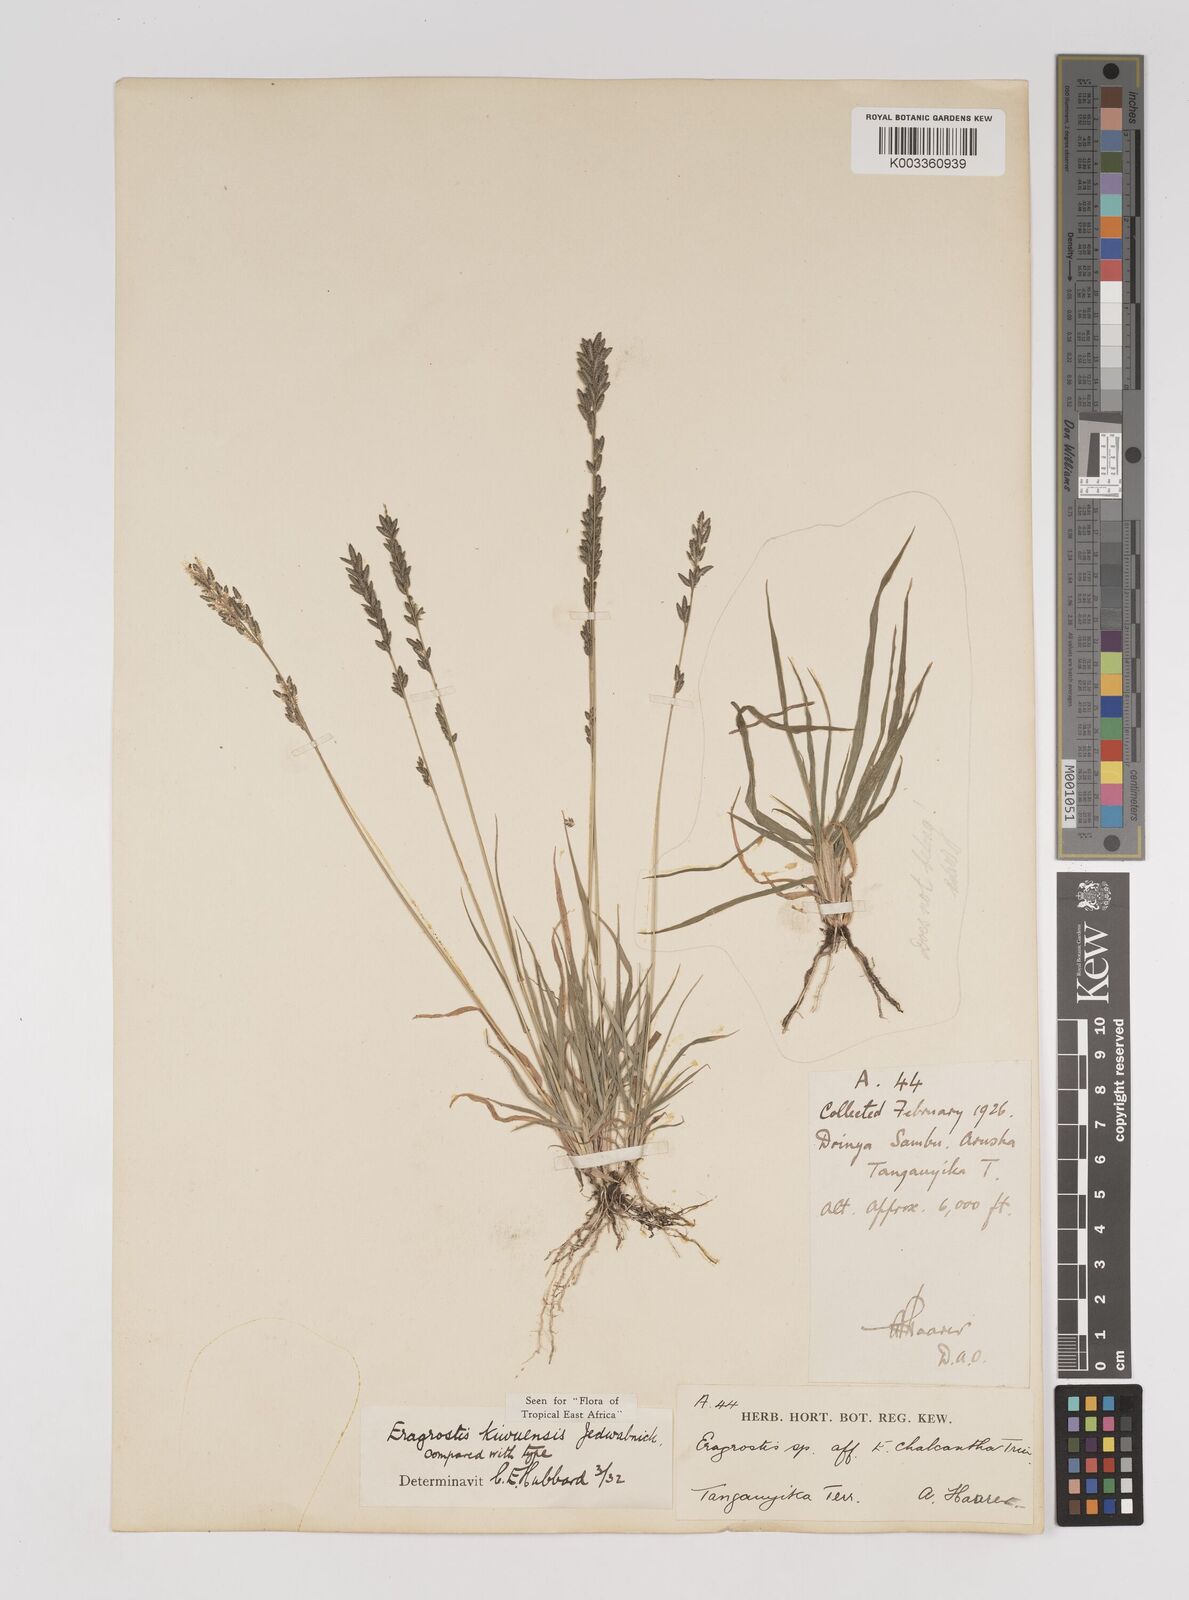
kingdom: Plantae
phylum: Tracheophyta
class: Liliopsida
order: Poales
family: Poaceae
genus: Eragrostis
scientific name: Eragrostis schweinfurthii
